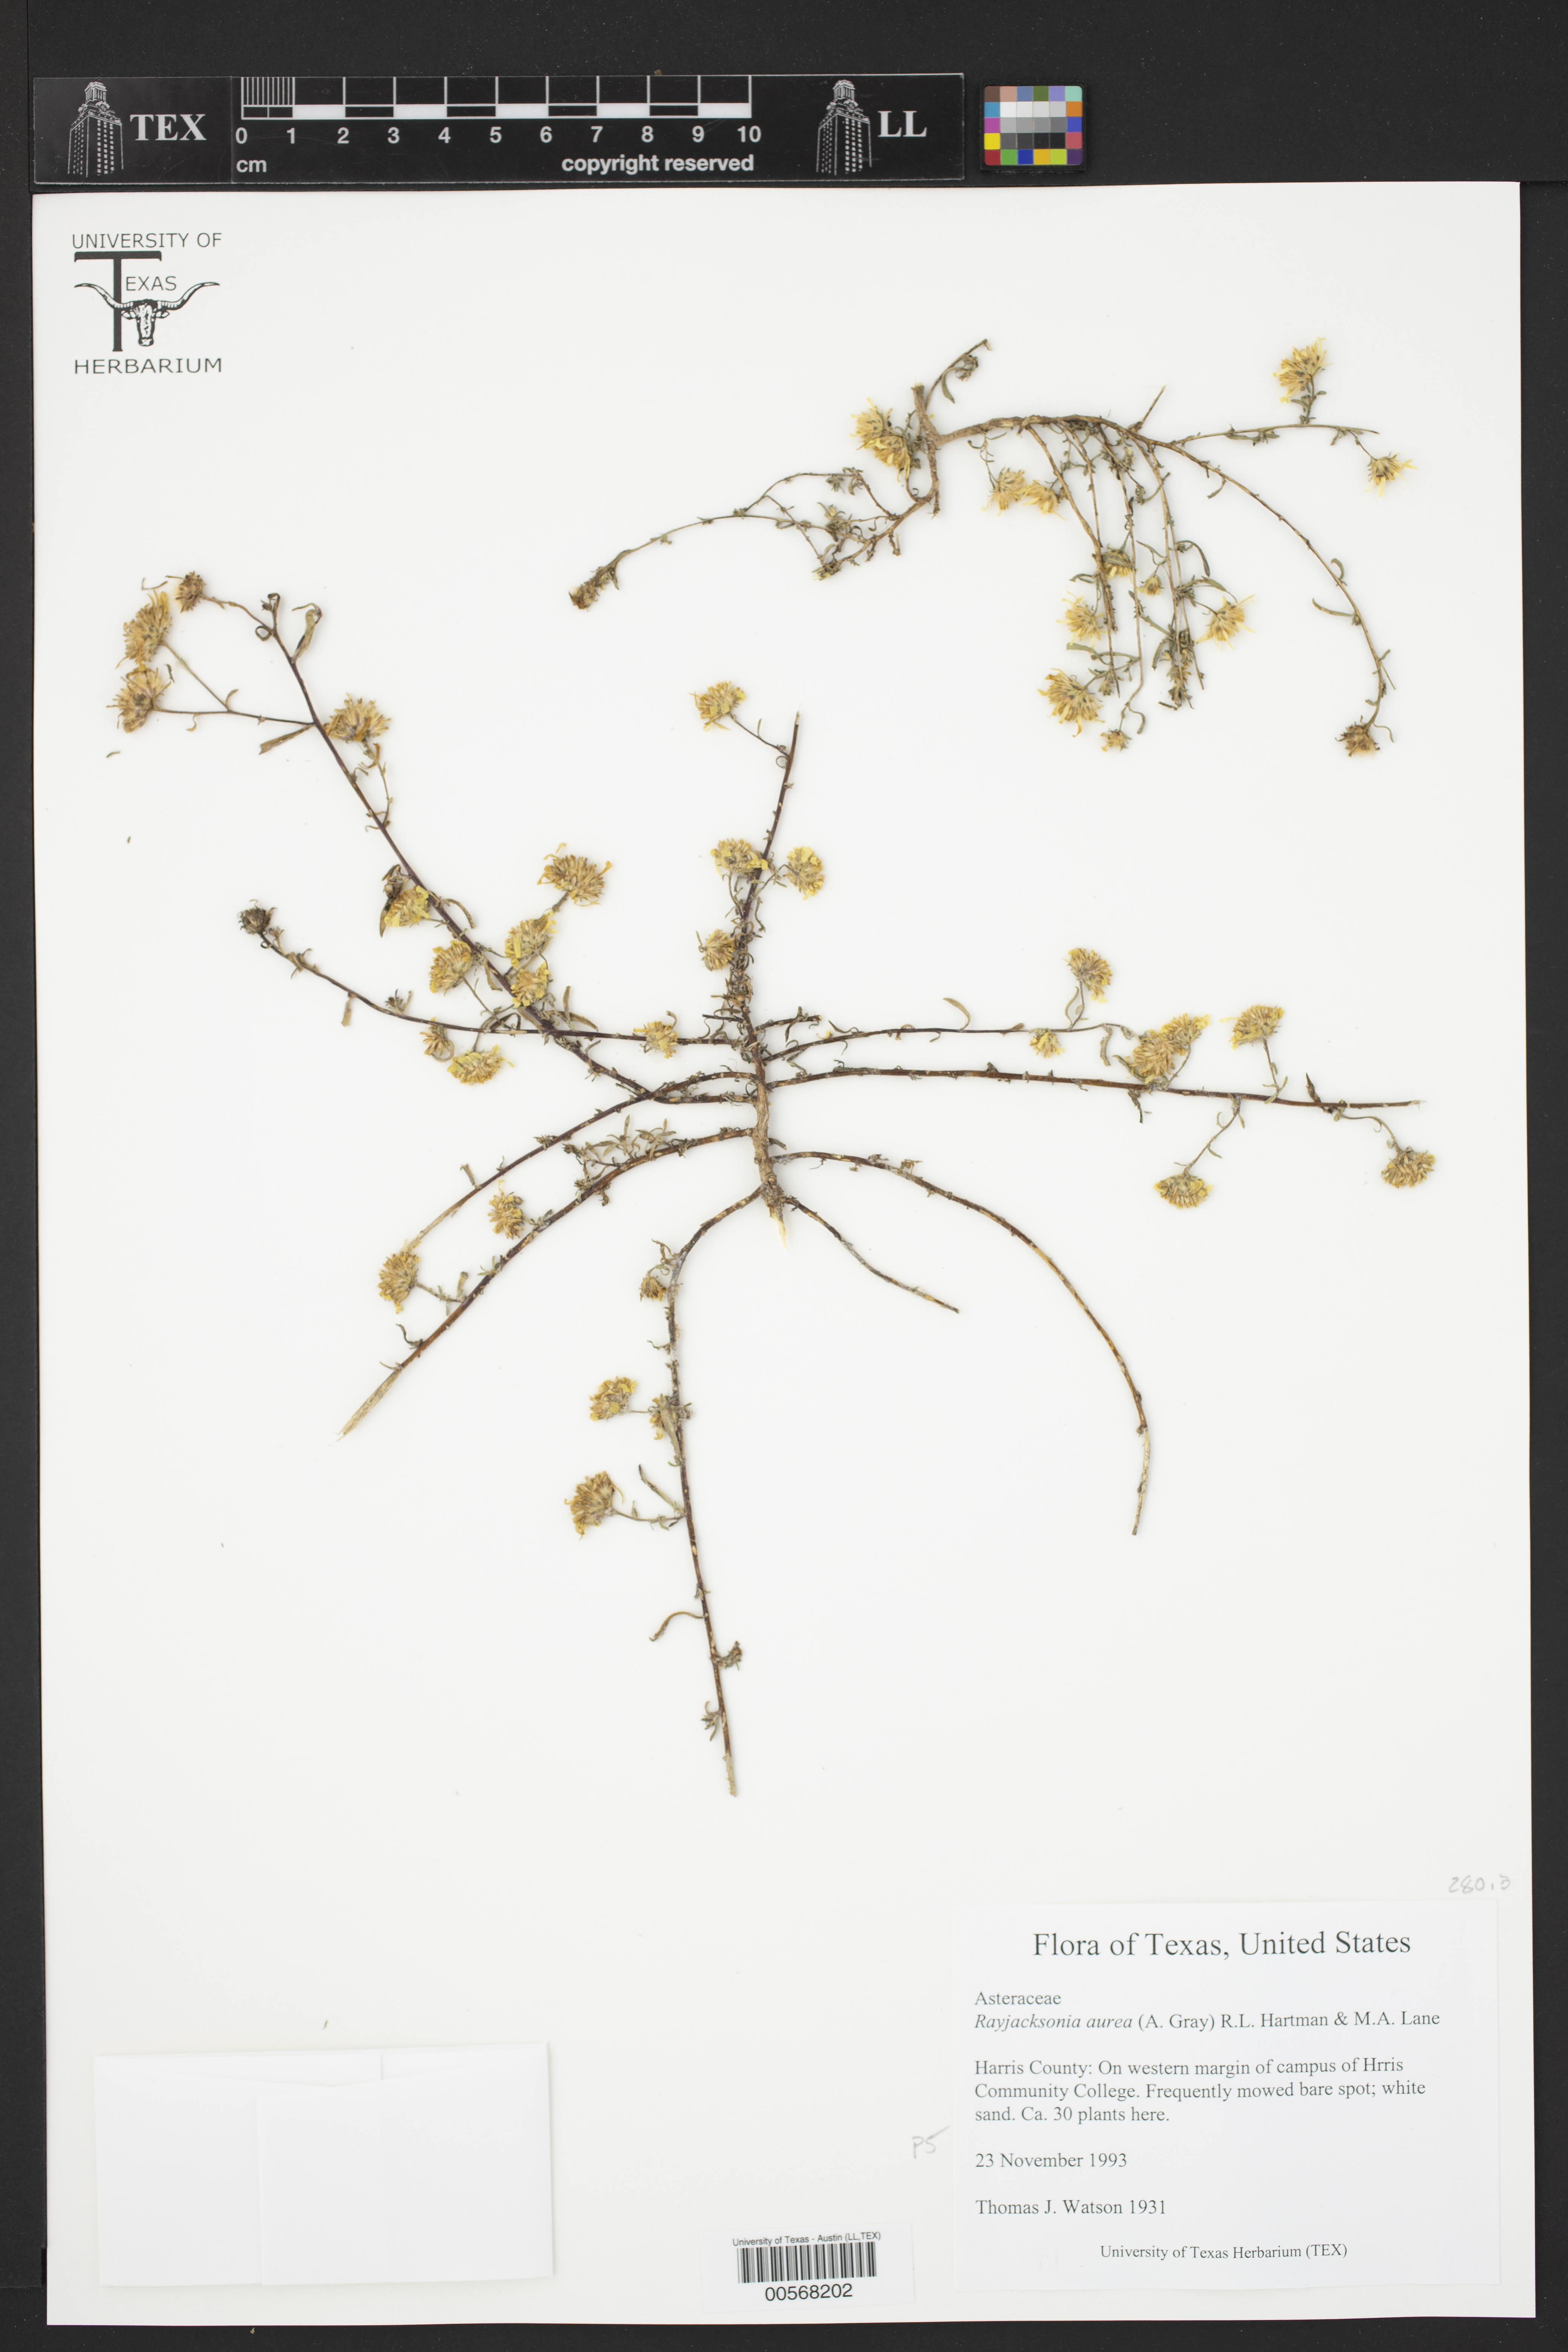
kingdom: Plantae
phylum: Tracheophyta
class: Magnoliopsida
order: Asterales
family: Asteraceae
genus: Rayjacksonia
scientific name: Rayjacksonia aurea
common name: Houston camphor daisy
